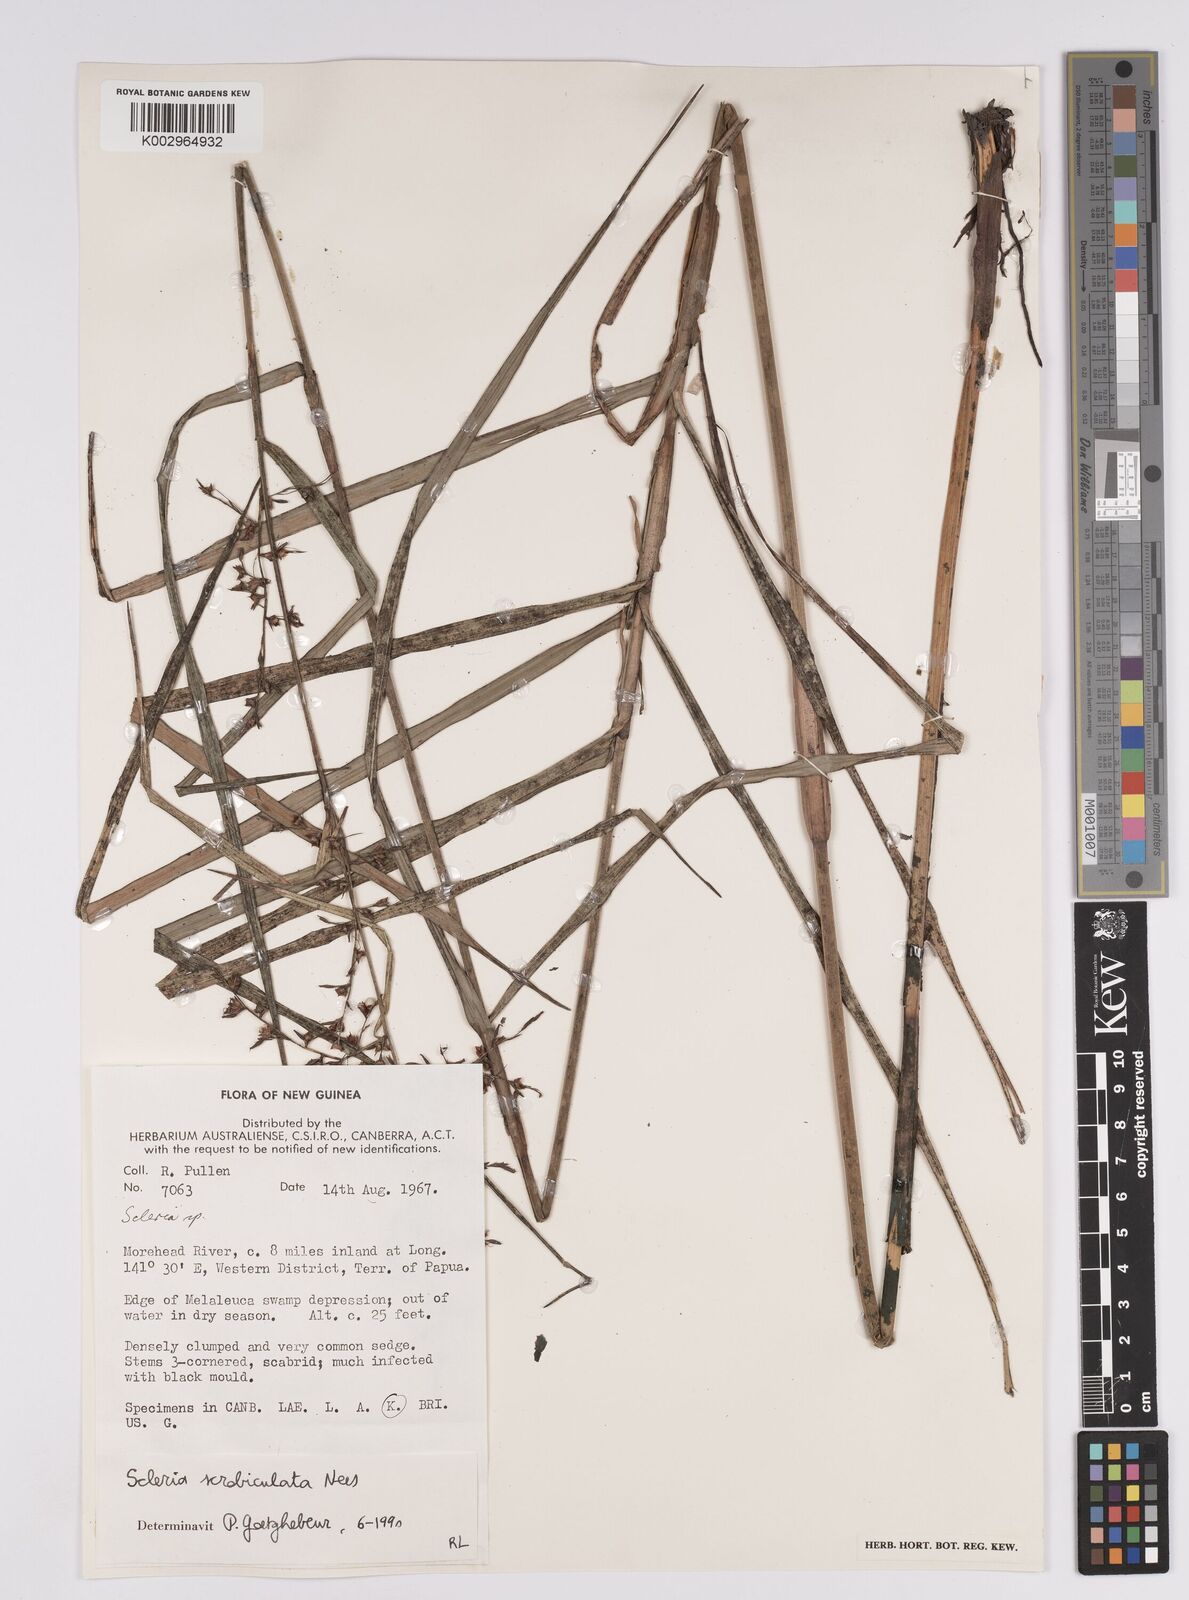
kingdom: Plantae
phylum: Tracheophyta
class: Liliopsida
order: Poales
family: Cyperaceae
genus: Scleria
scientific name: Scleria scrobiculata
